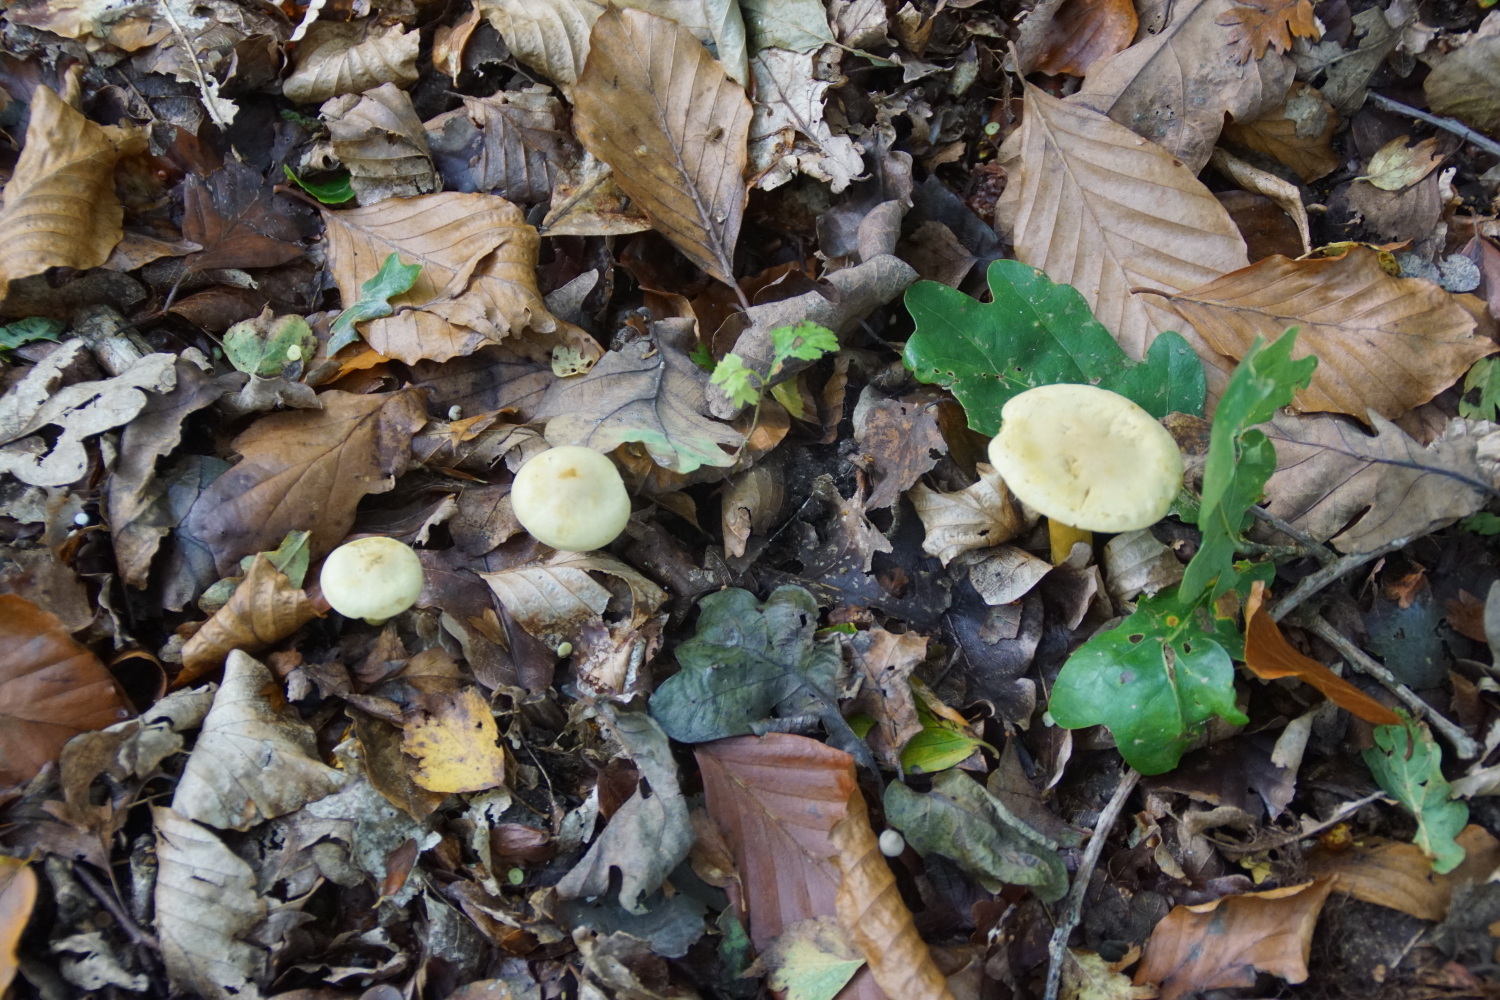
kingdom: Fungi
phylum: Basidiomycota
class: Agaricomycetes
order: Agaricales
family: Tricholomataceae
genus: Tricholoma
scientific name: Tricholoma sulphureum
